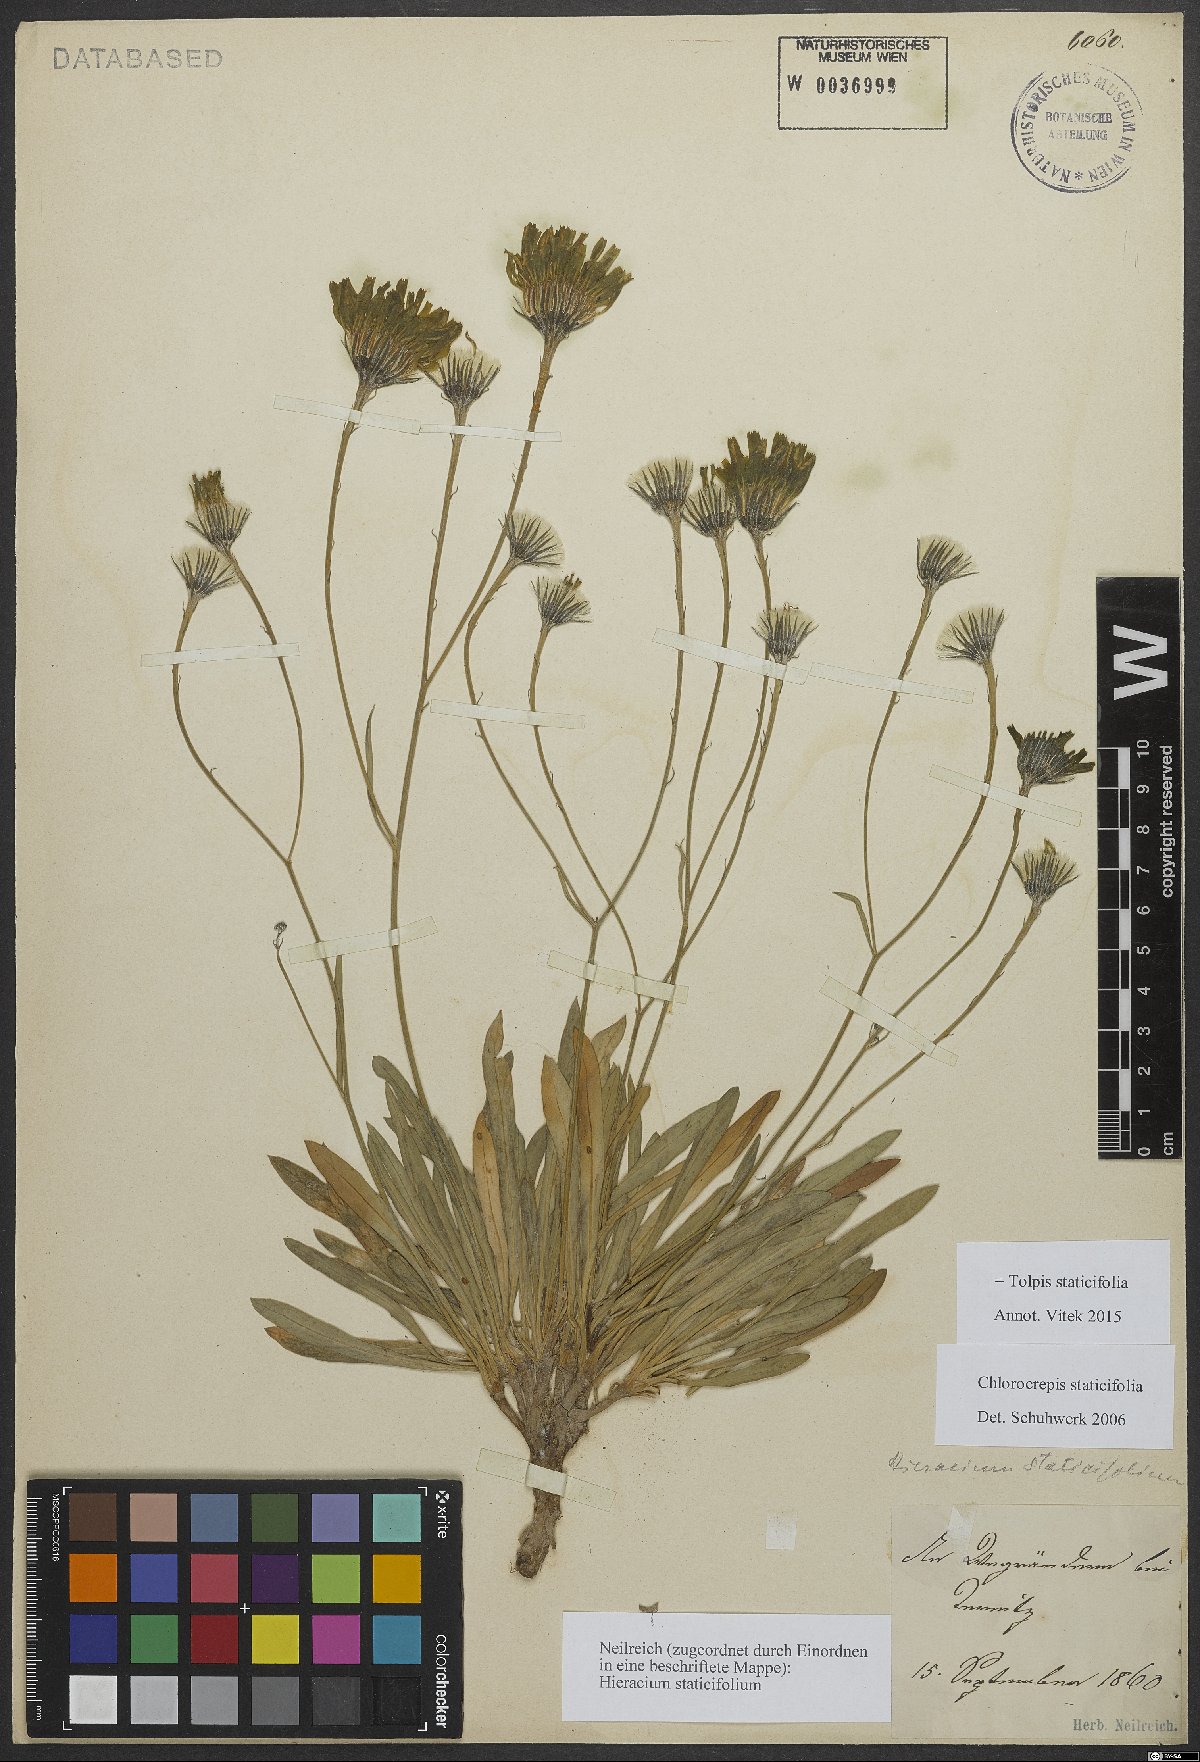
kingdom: Plantae
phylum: Tracheophyta
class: Magnoliopsida
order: Asterales
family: Asteraceae
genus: Tolpis
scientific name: Tolpis staticifolia
